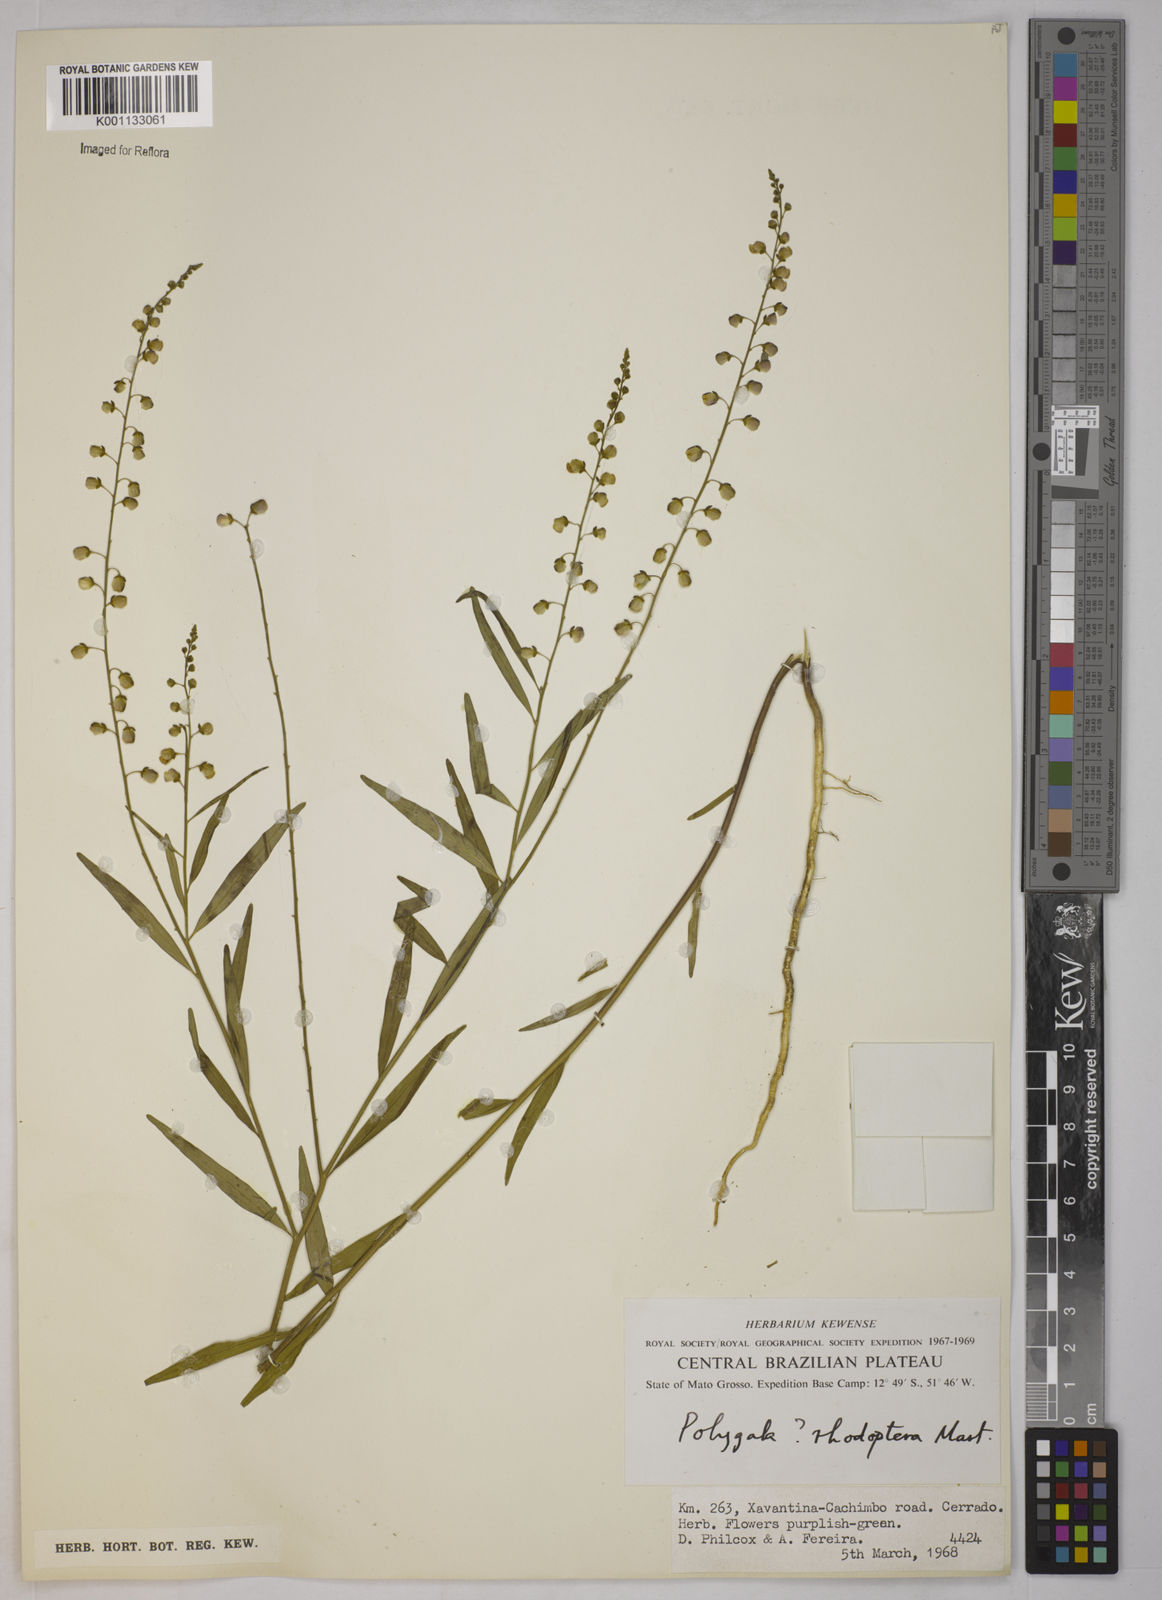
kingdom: Plantae
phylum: Tracheophyta
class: Magnoliopsida
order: Fabales
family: Polygalaceae
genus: Asemeia
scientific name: Asemeia rhodoptera
